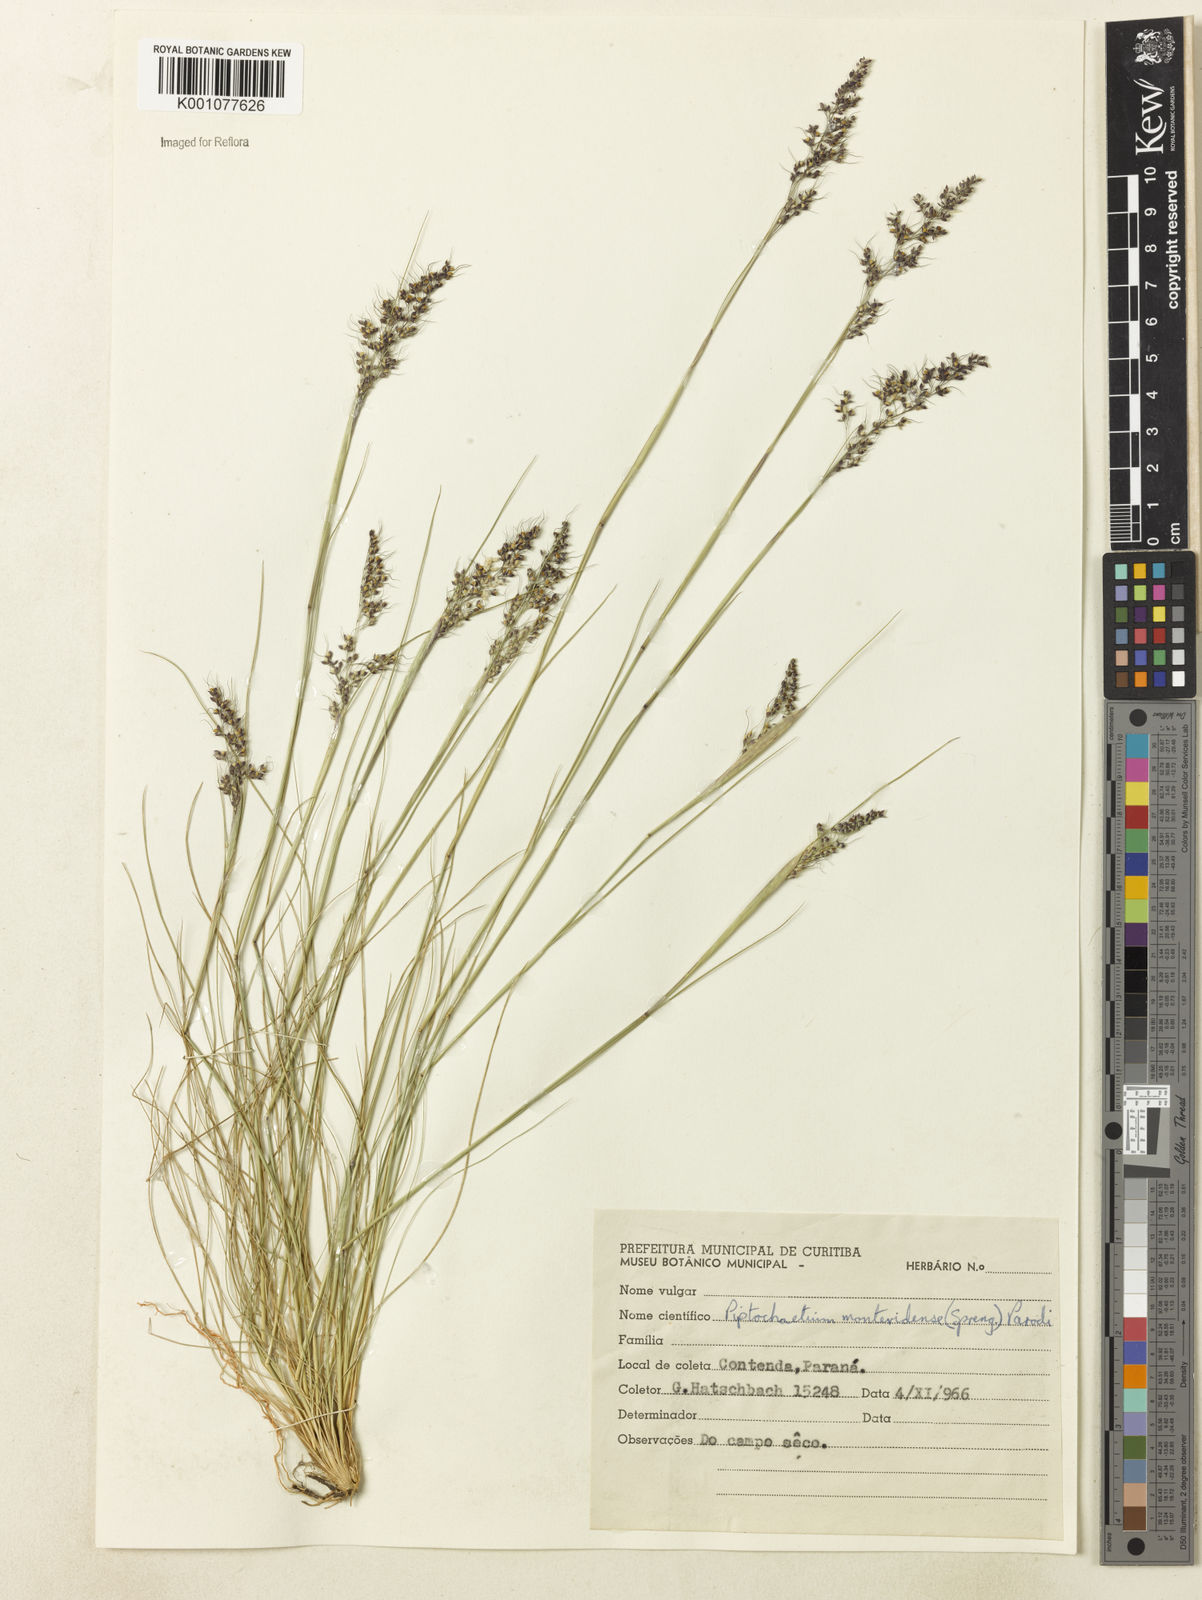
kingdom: Plantae
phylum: Tracheophyta
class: Liliopsida
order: Poales
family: Poaceae
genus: Piptochaetium
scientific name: Piptochaetium montevidense
